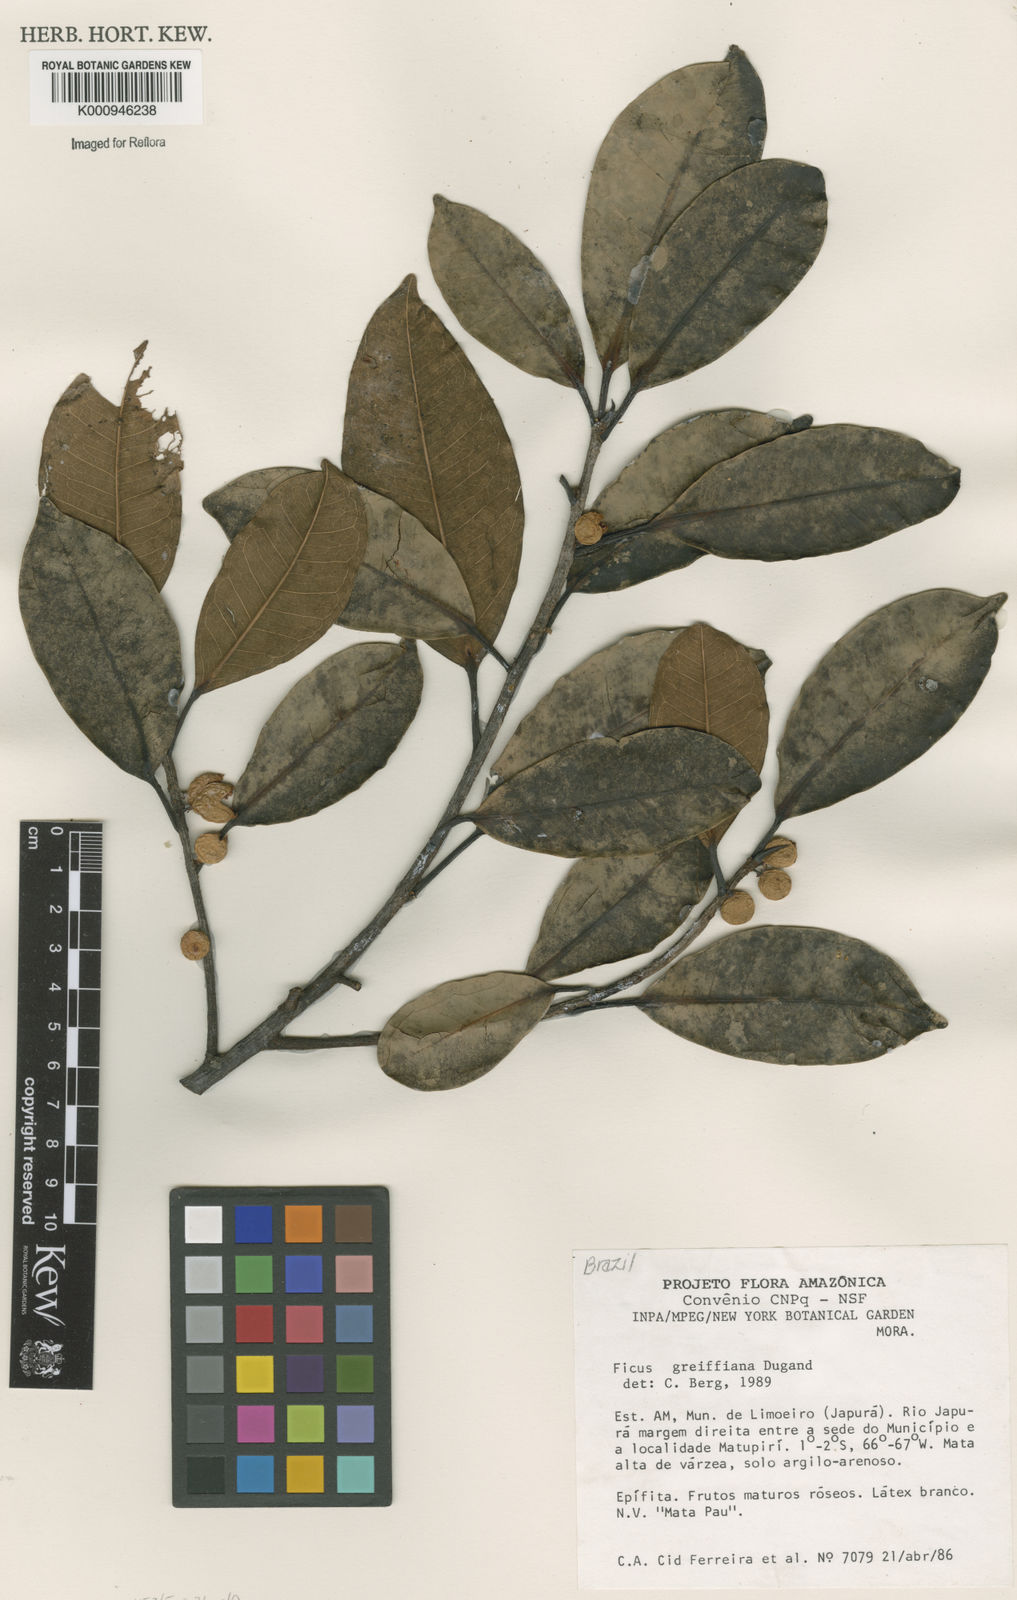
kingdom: Plantae
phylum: Tracheophyta
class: Magnoliopsida
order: Rosales
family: Moraceae
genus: Ficus
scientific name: Ficus americana
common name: Jamaican cherry fig
